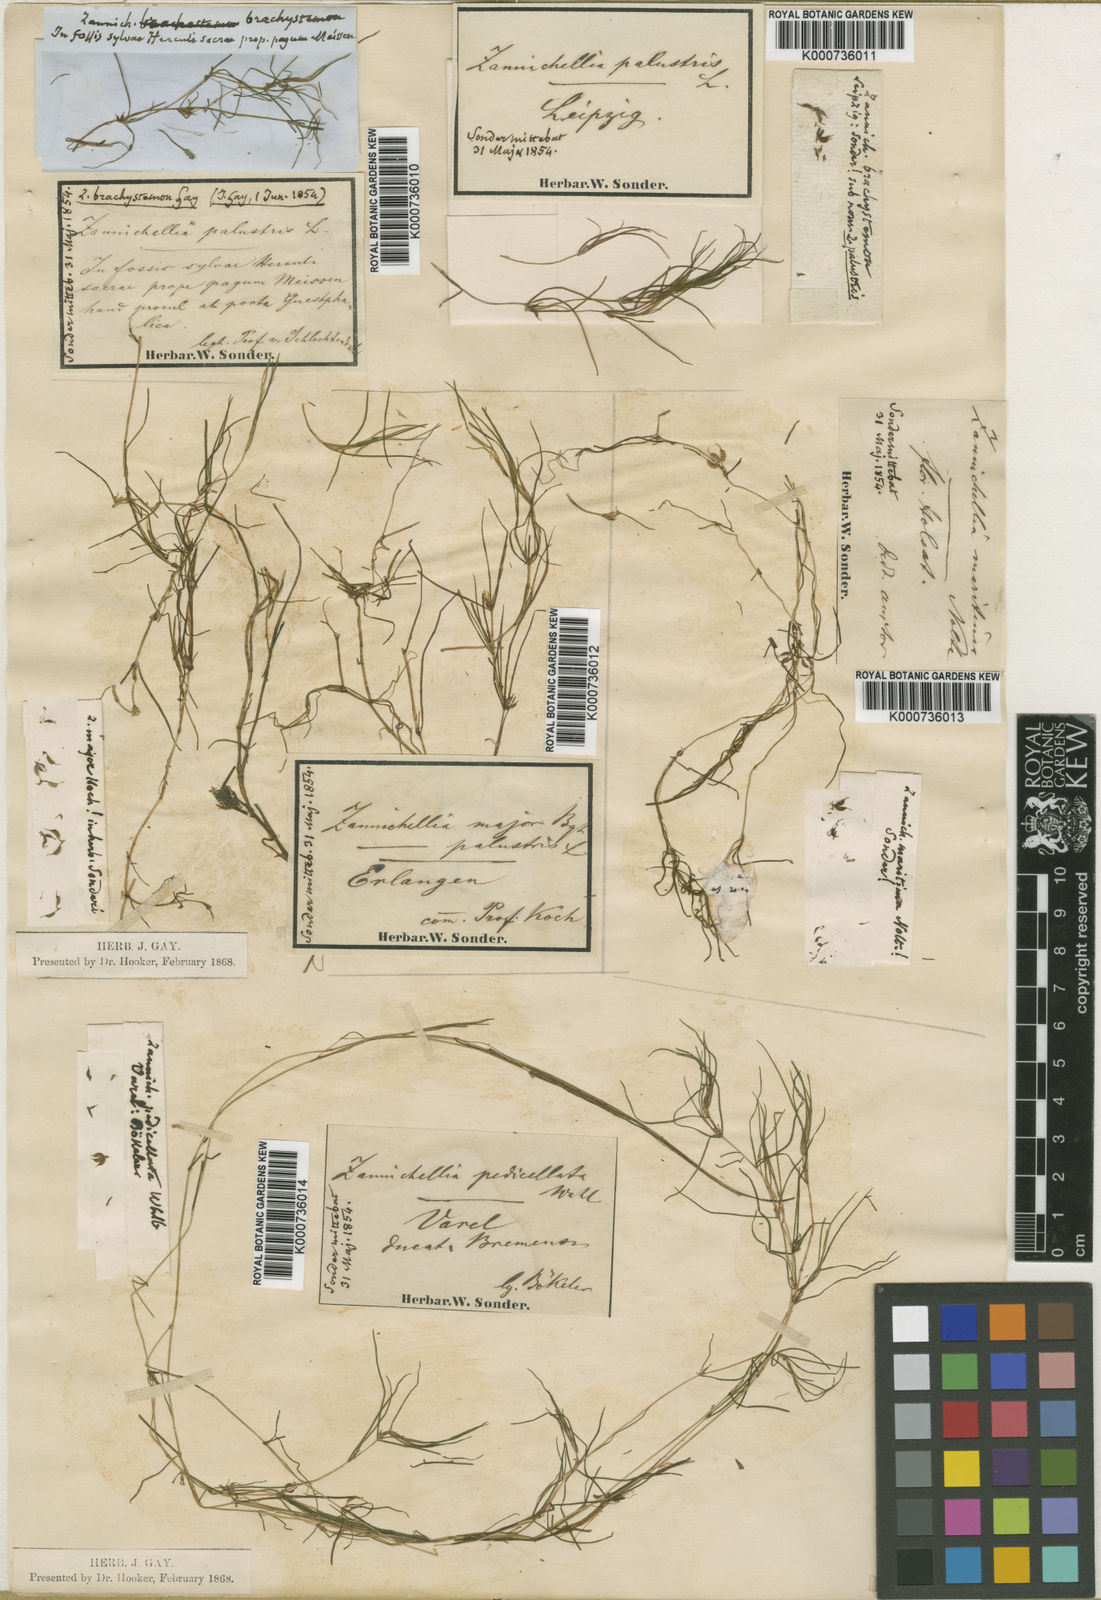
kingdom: Plantae
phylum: Tracheophyta
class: Liliopsida
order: Alismatales
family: Potamogetonaceae
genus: Zannichellia
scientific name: Zannichellia palustris
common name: Horned pondweed
